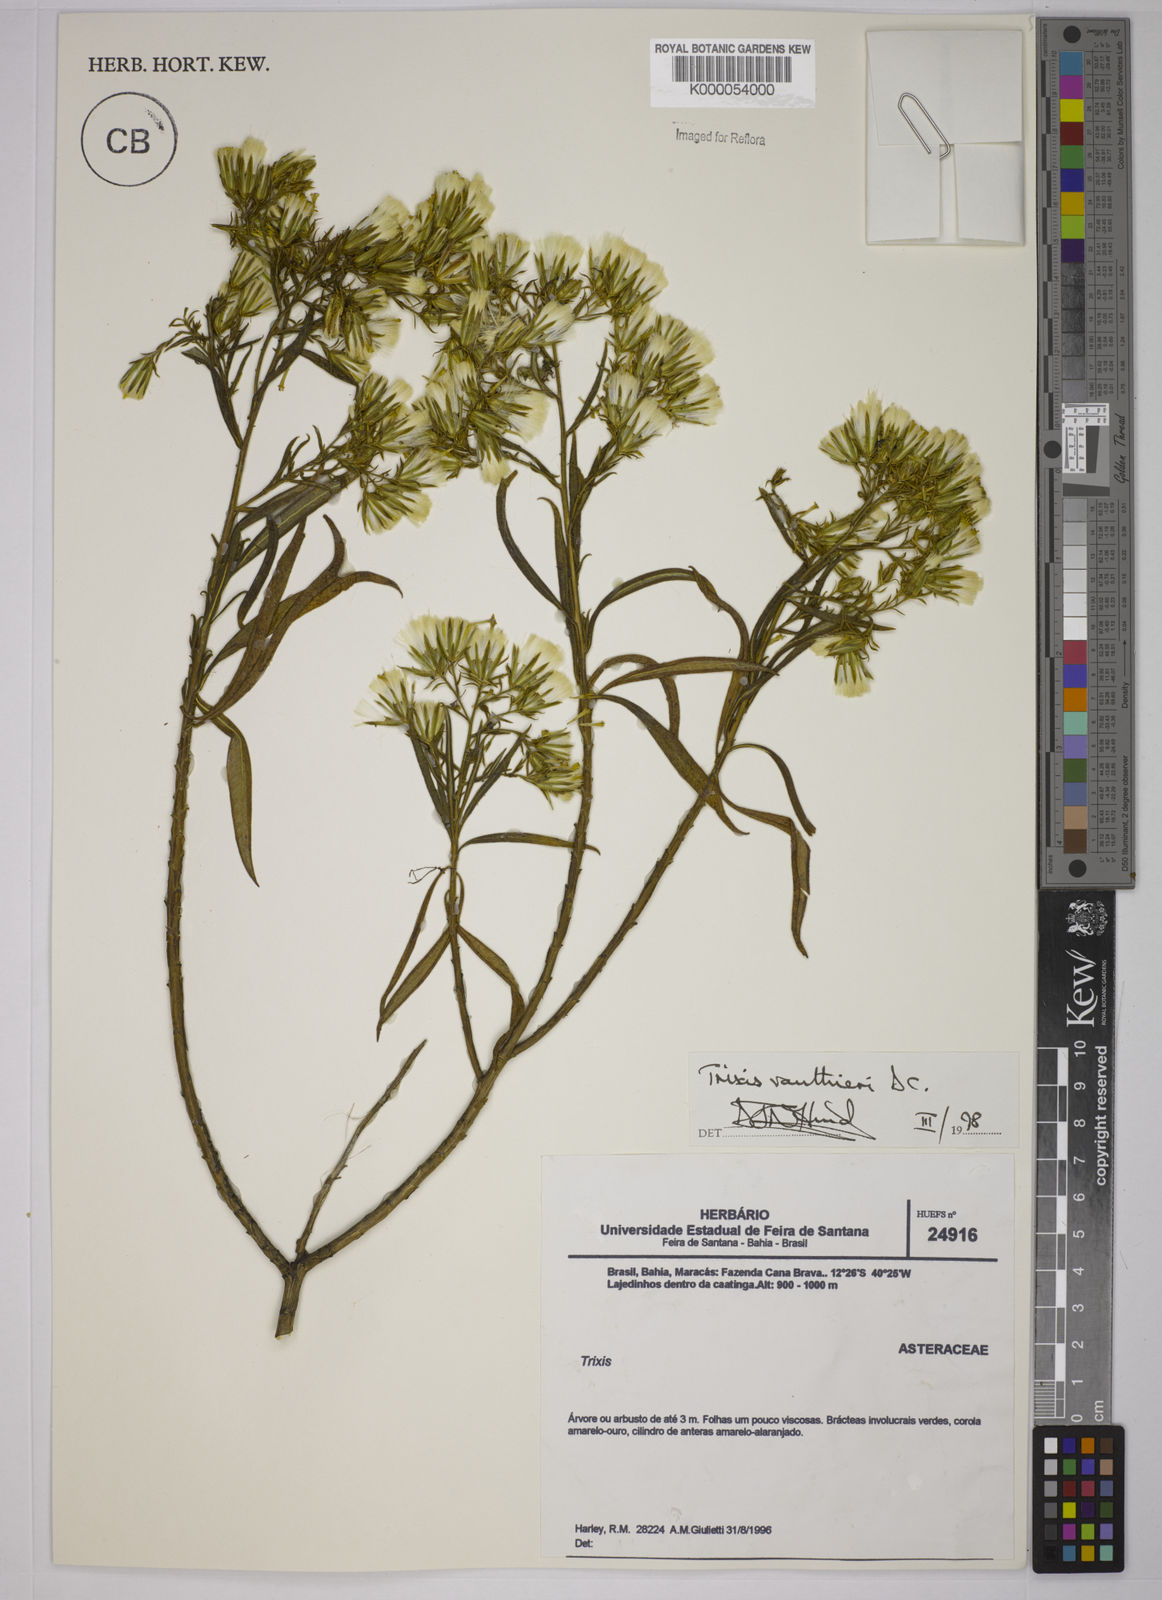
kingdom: Plantae
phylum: Tracheophyta
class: Magnoliopsida
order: Asterales
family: Asteraceae
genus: Trixis
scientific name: Trixis vauthieri
